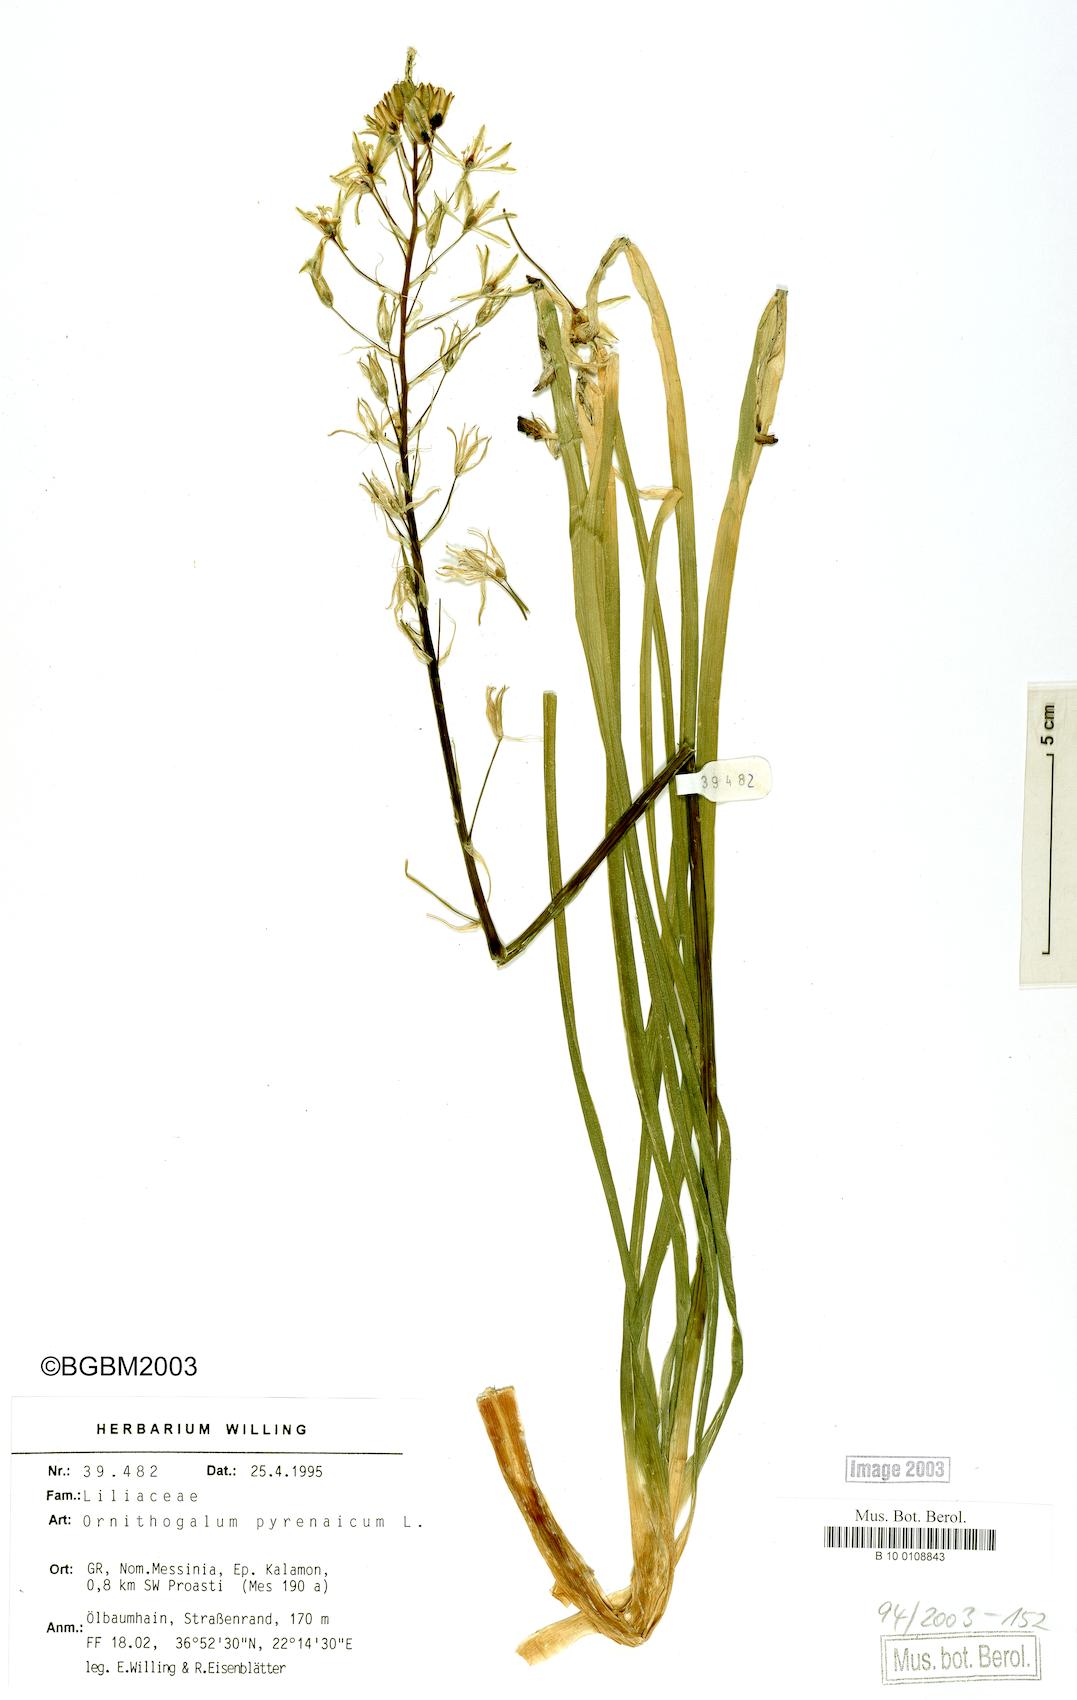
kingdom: Plantae
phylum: Tracheophyta
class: Liliopsida
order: Asparagales
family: Asparagaceae
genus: Ornithogalum
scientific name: Ornithogalum pyrenaicum
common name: Spiked star-of-bethlehem
